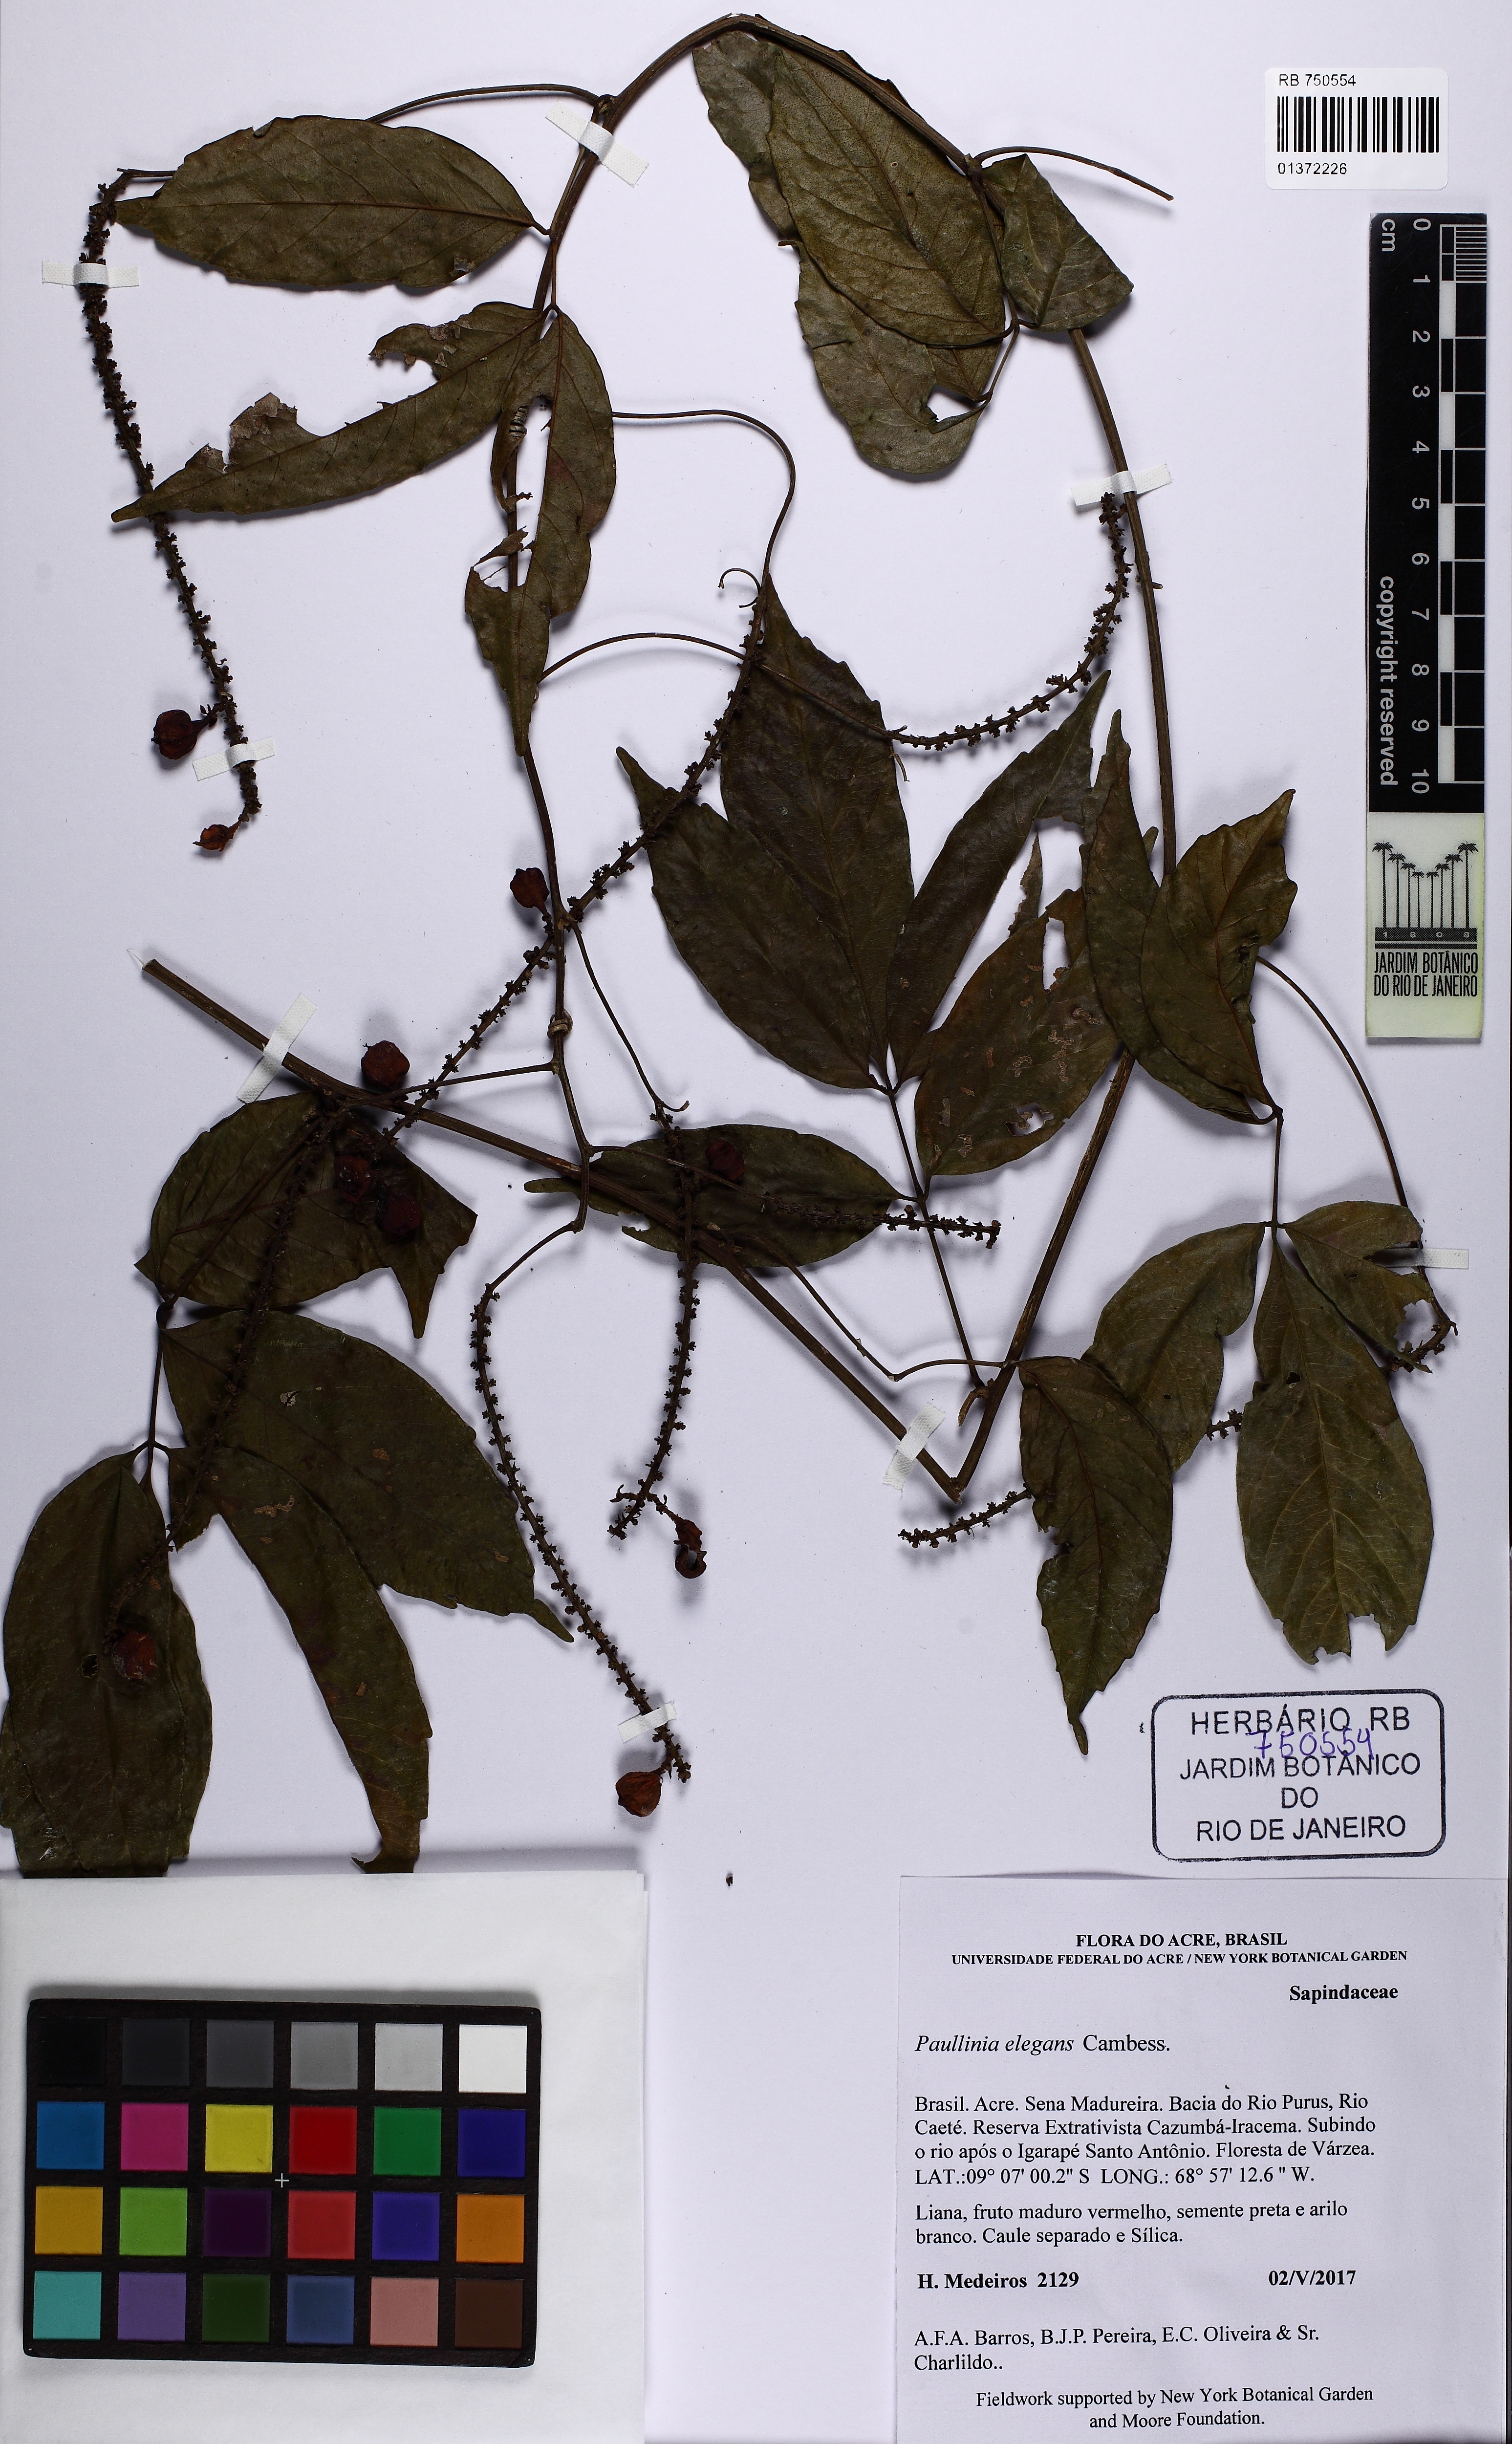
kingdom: Plantae
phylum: Tracheophyta
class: Magnoliopsida
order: Sapindales
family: Sapindaceae
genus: Paullinia
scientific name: Paullinia elegans
